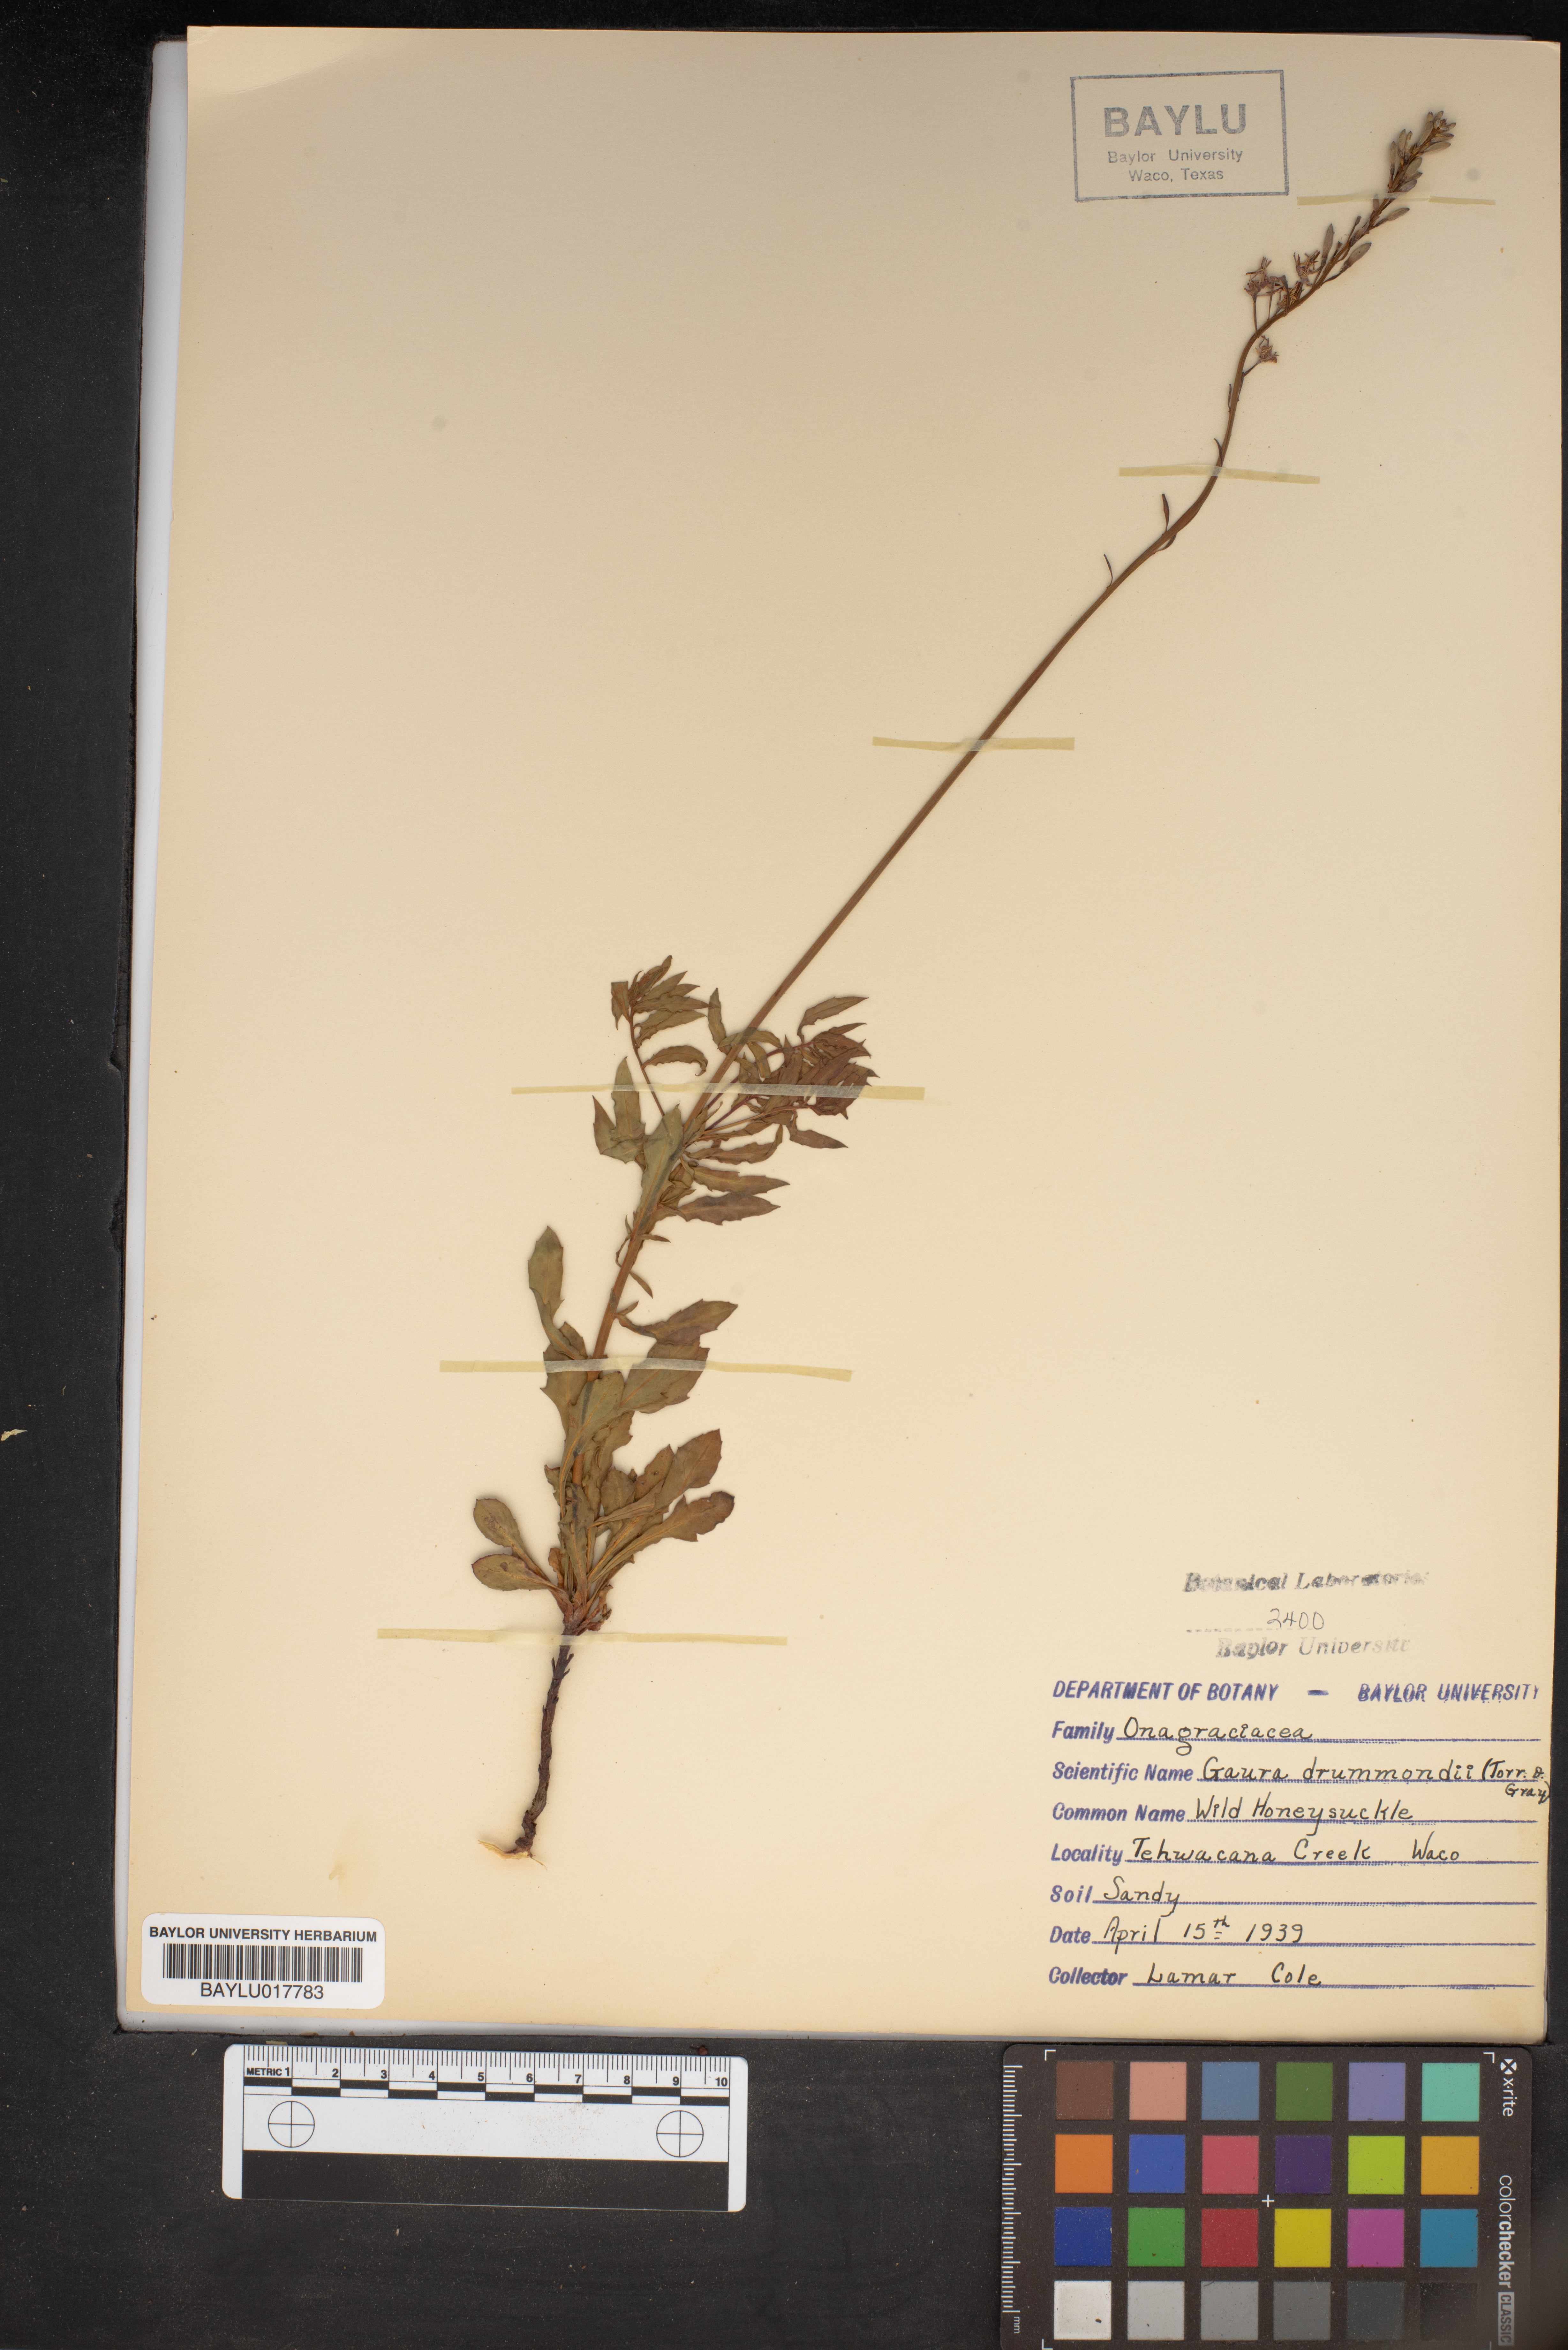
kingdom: Plantae
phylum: Tracheophyta
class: Magnoliopsida
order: Myrtales
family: Onagraceae
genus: Oenothera
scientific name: Oenothera hispida
